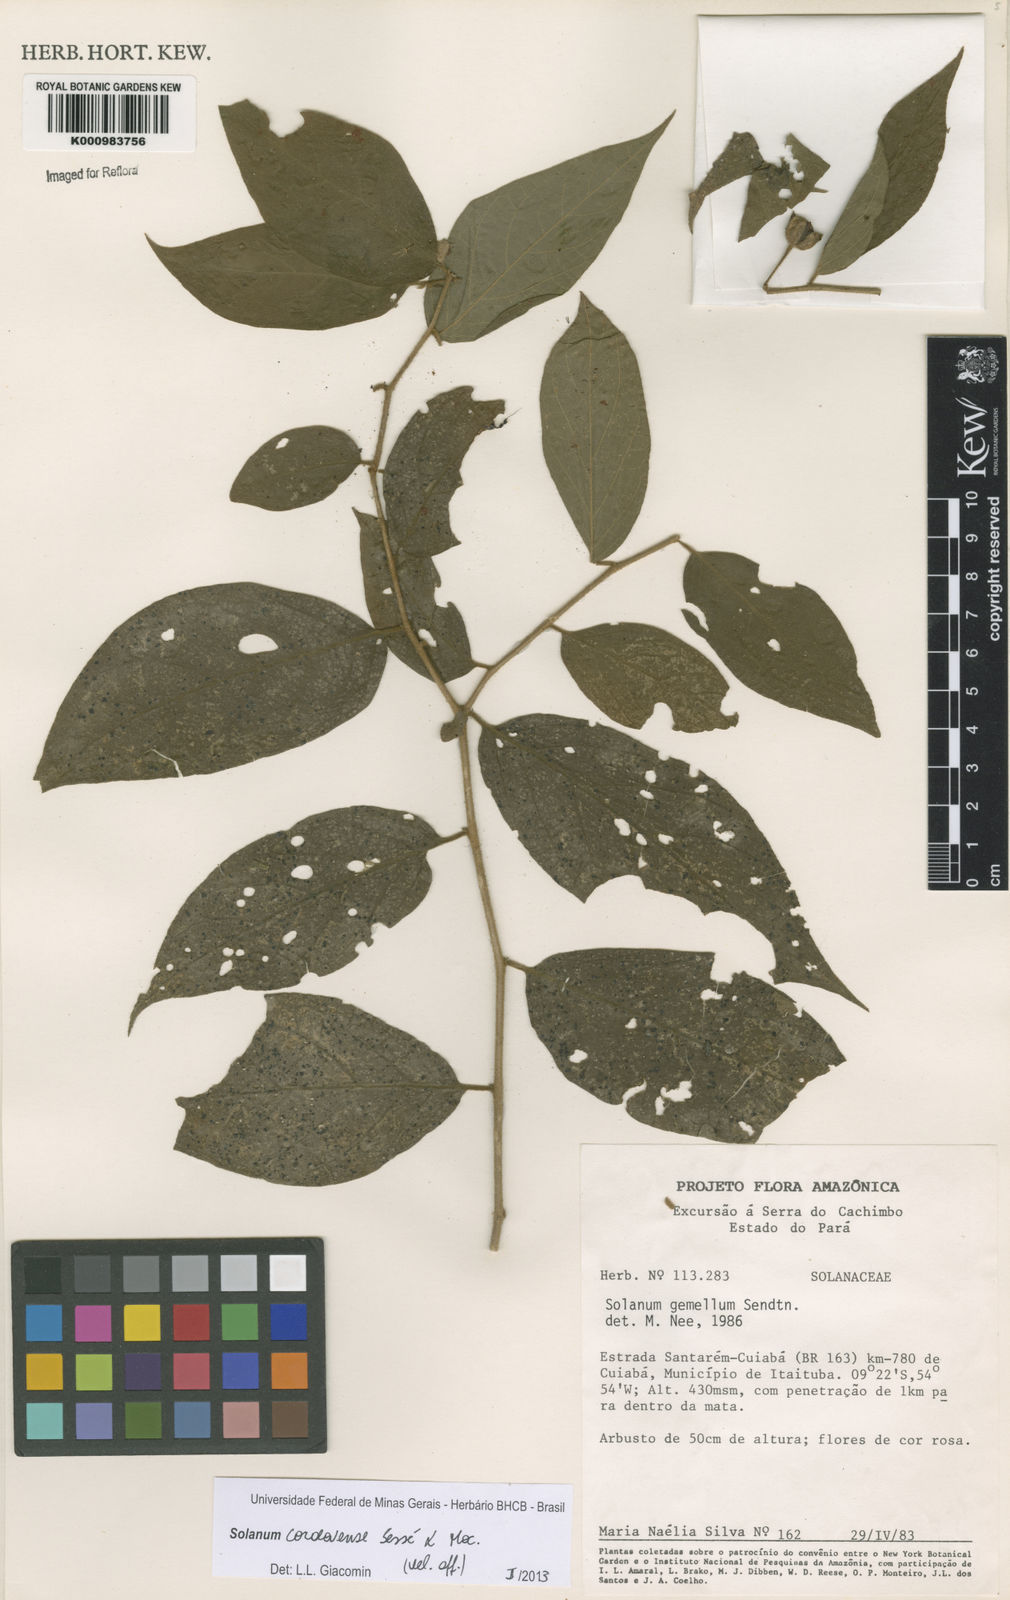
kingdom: Plantae
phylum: Tracheophyta
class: Magnoliopsida
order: Solanales
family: Solanaceae
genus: Solanum
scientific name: Solanum
